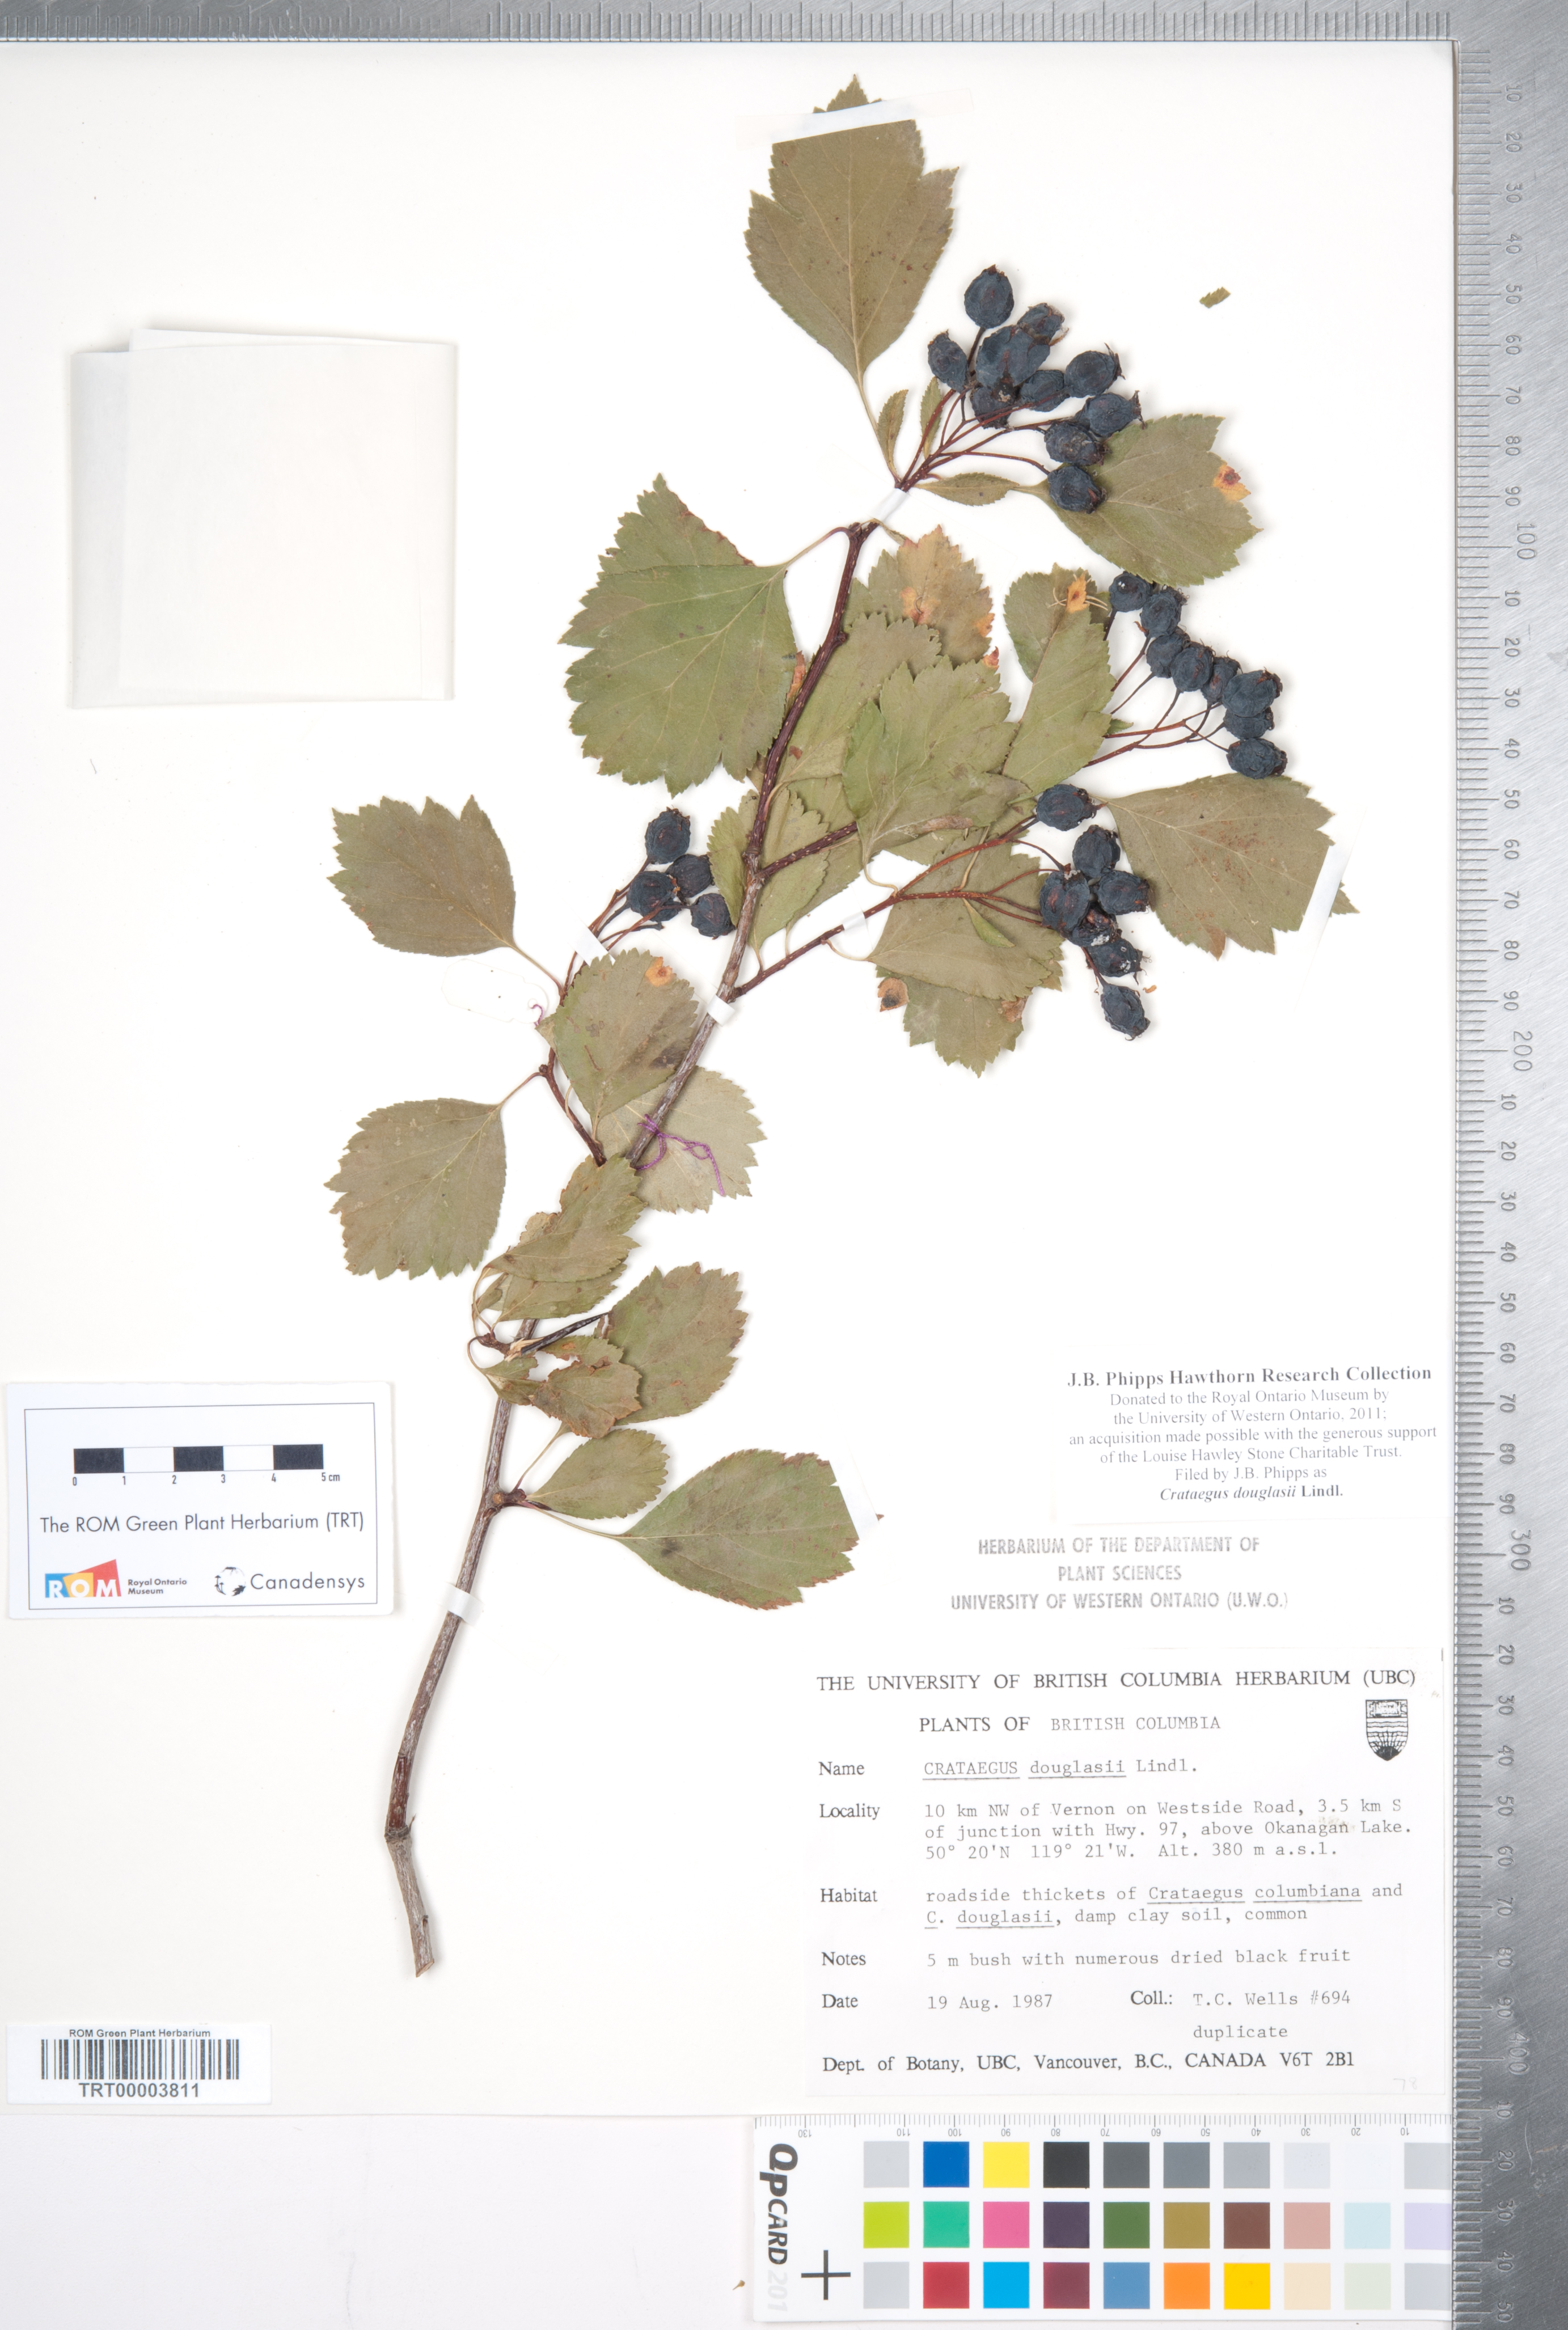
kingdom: Plantae
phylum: Tracheophyta
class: Magnoliopsida
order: Rosales
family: Rosaceae
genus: Crataegus
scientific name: Crataegus douglasii
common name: Black hawthorn
